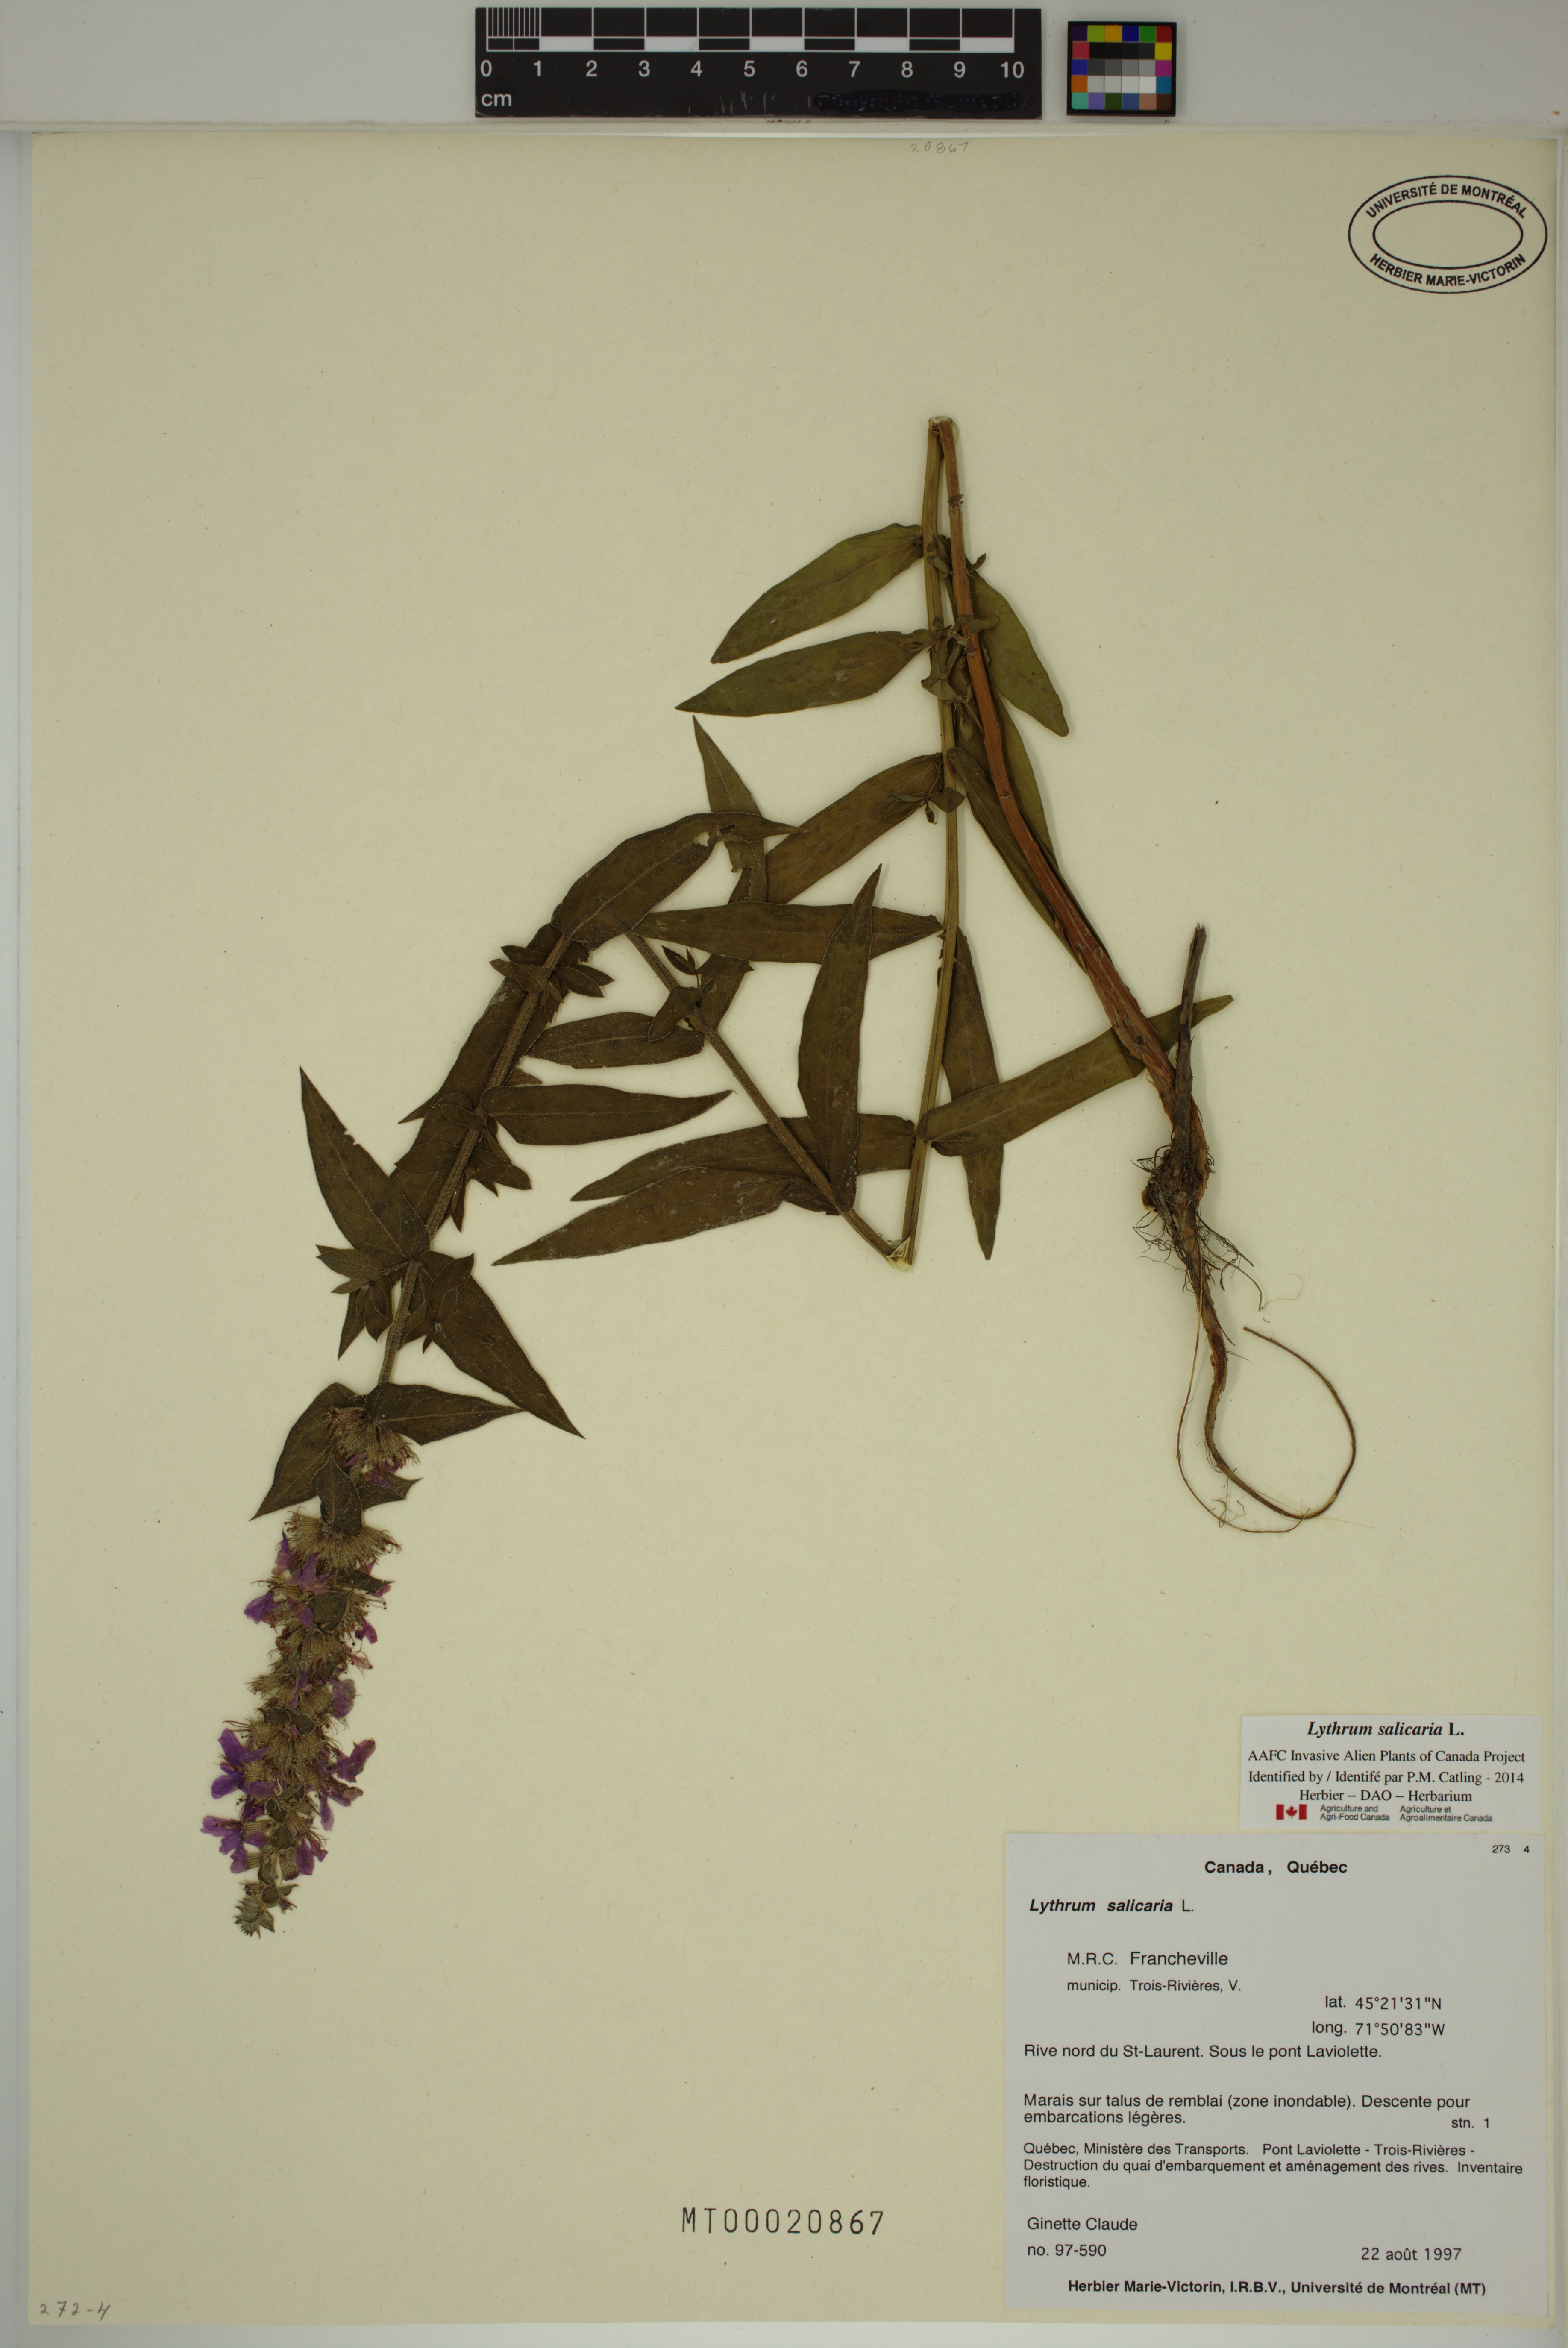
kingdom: Plantae
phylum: Tracheophyta
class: Magnoliopsida
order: Myrtales
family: Lythraceae
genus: Lythrum
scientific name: Lythrum salicaria
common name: Purple loosestrife
